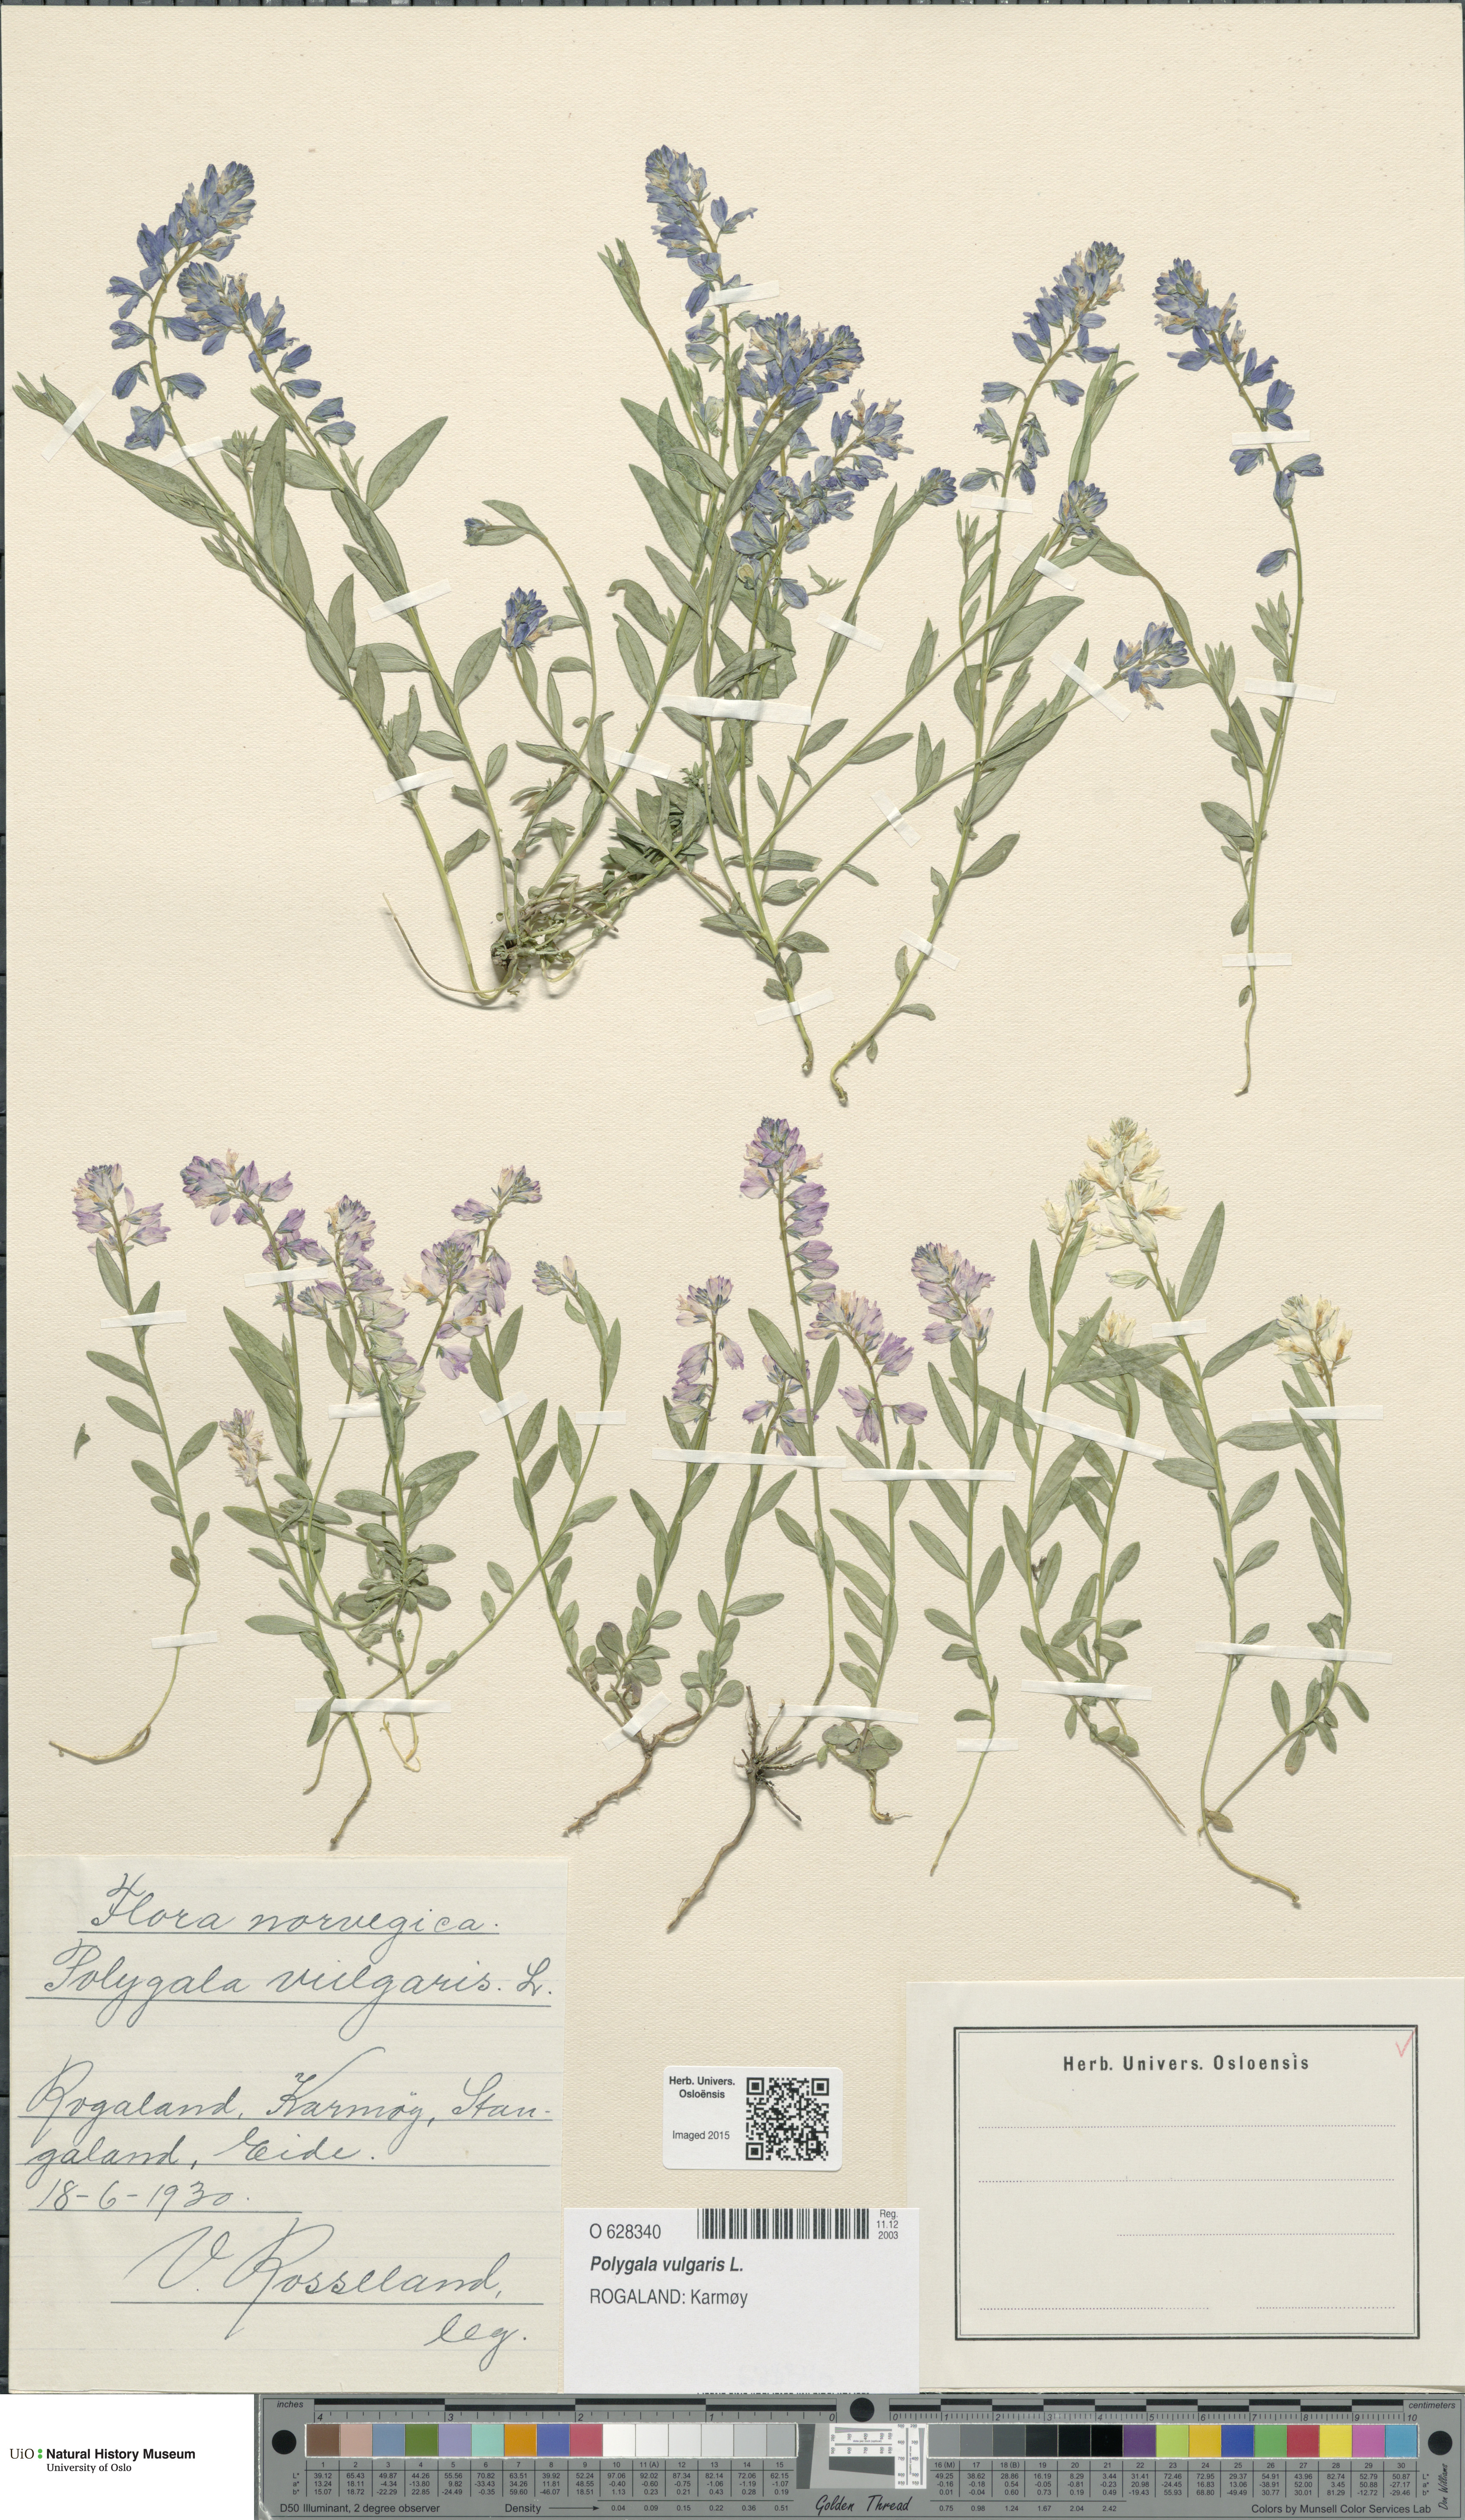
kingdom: Plantae
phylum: Tracheophyta
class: Magnoliopsida
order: Fabales
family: Polygalaceae
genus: Polygala
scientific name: Polygala vulgaris
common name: Common milkwort
